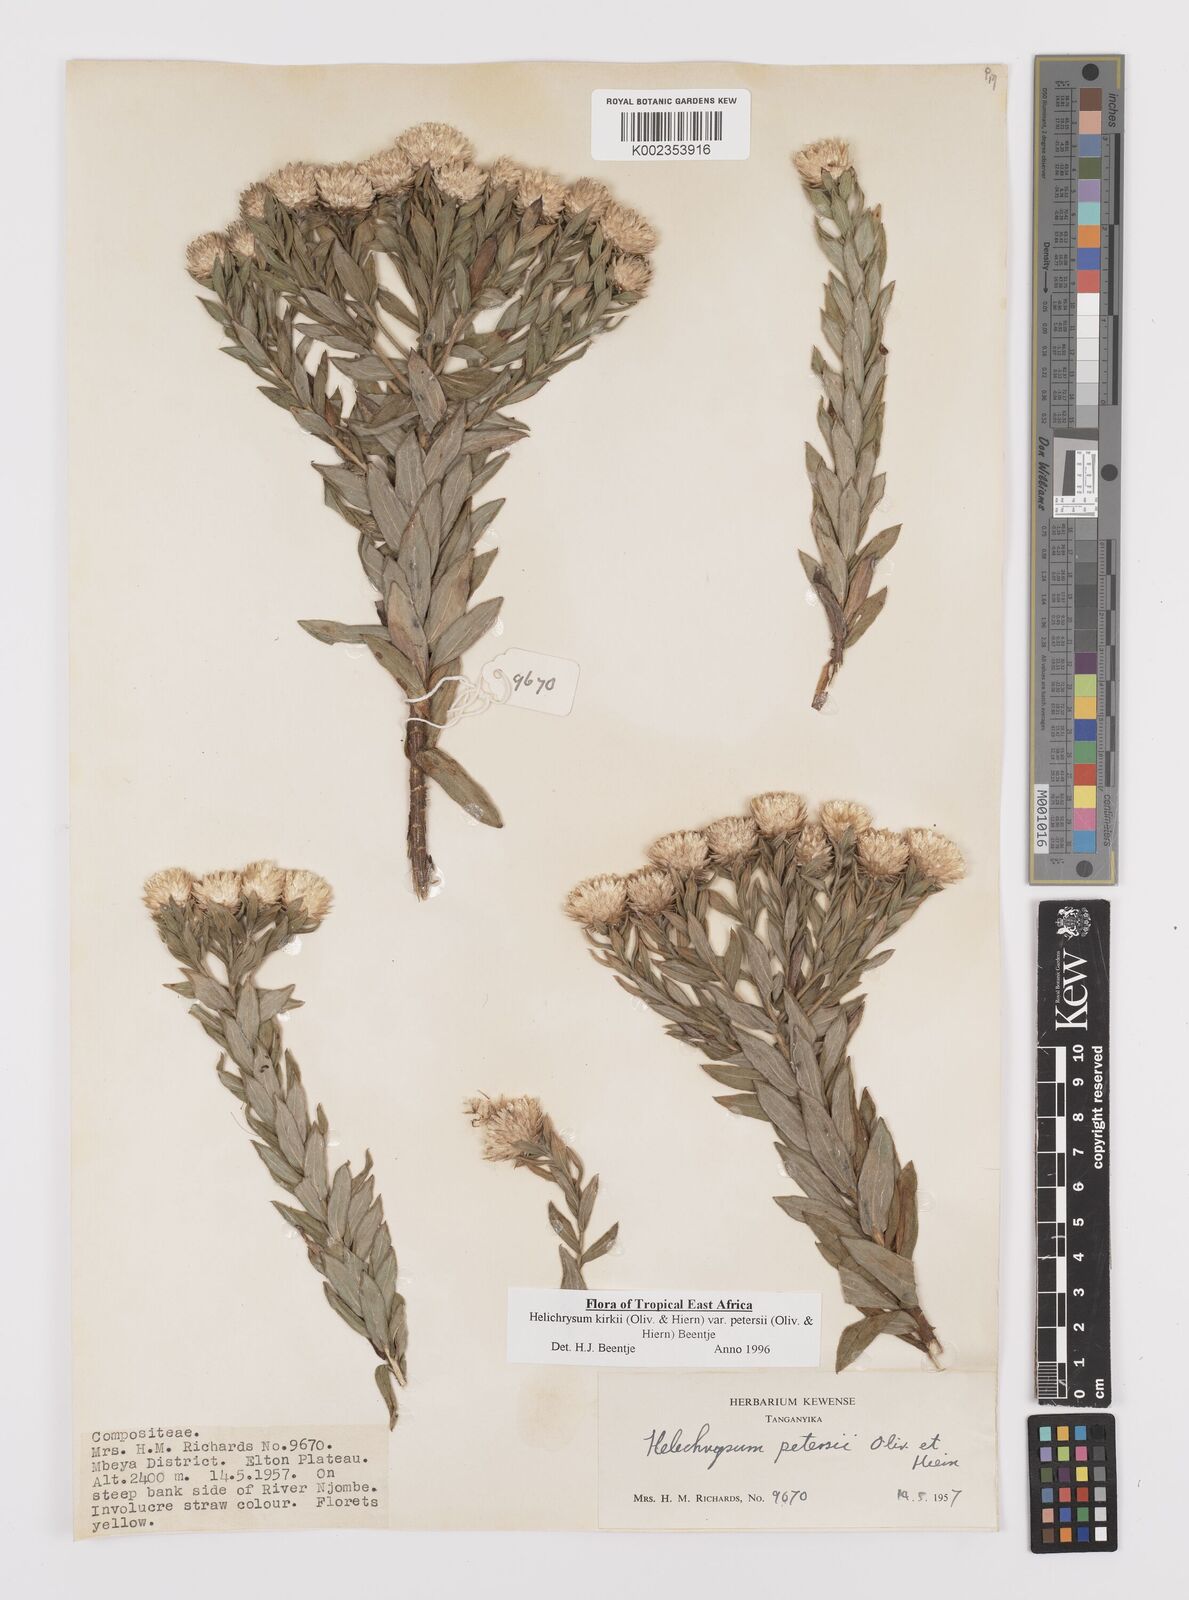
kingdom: Plantae
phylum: Tracheophyta
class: Magnoliopsida
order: Asterales
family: Asteraceae
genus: Helichrysum
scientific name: Helichrysum kirkii
